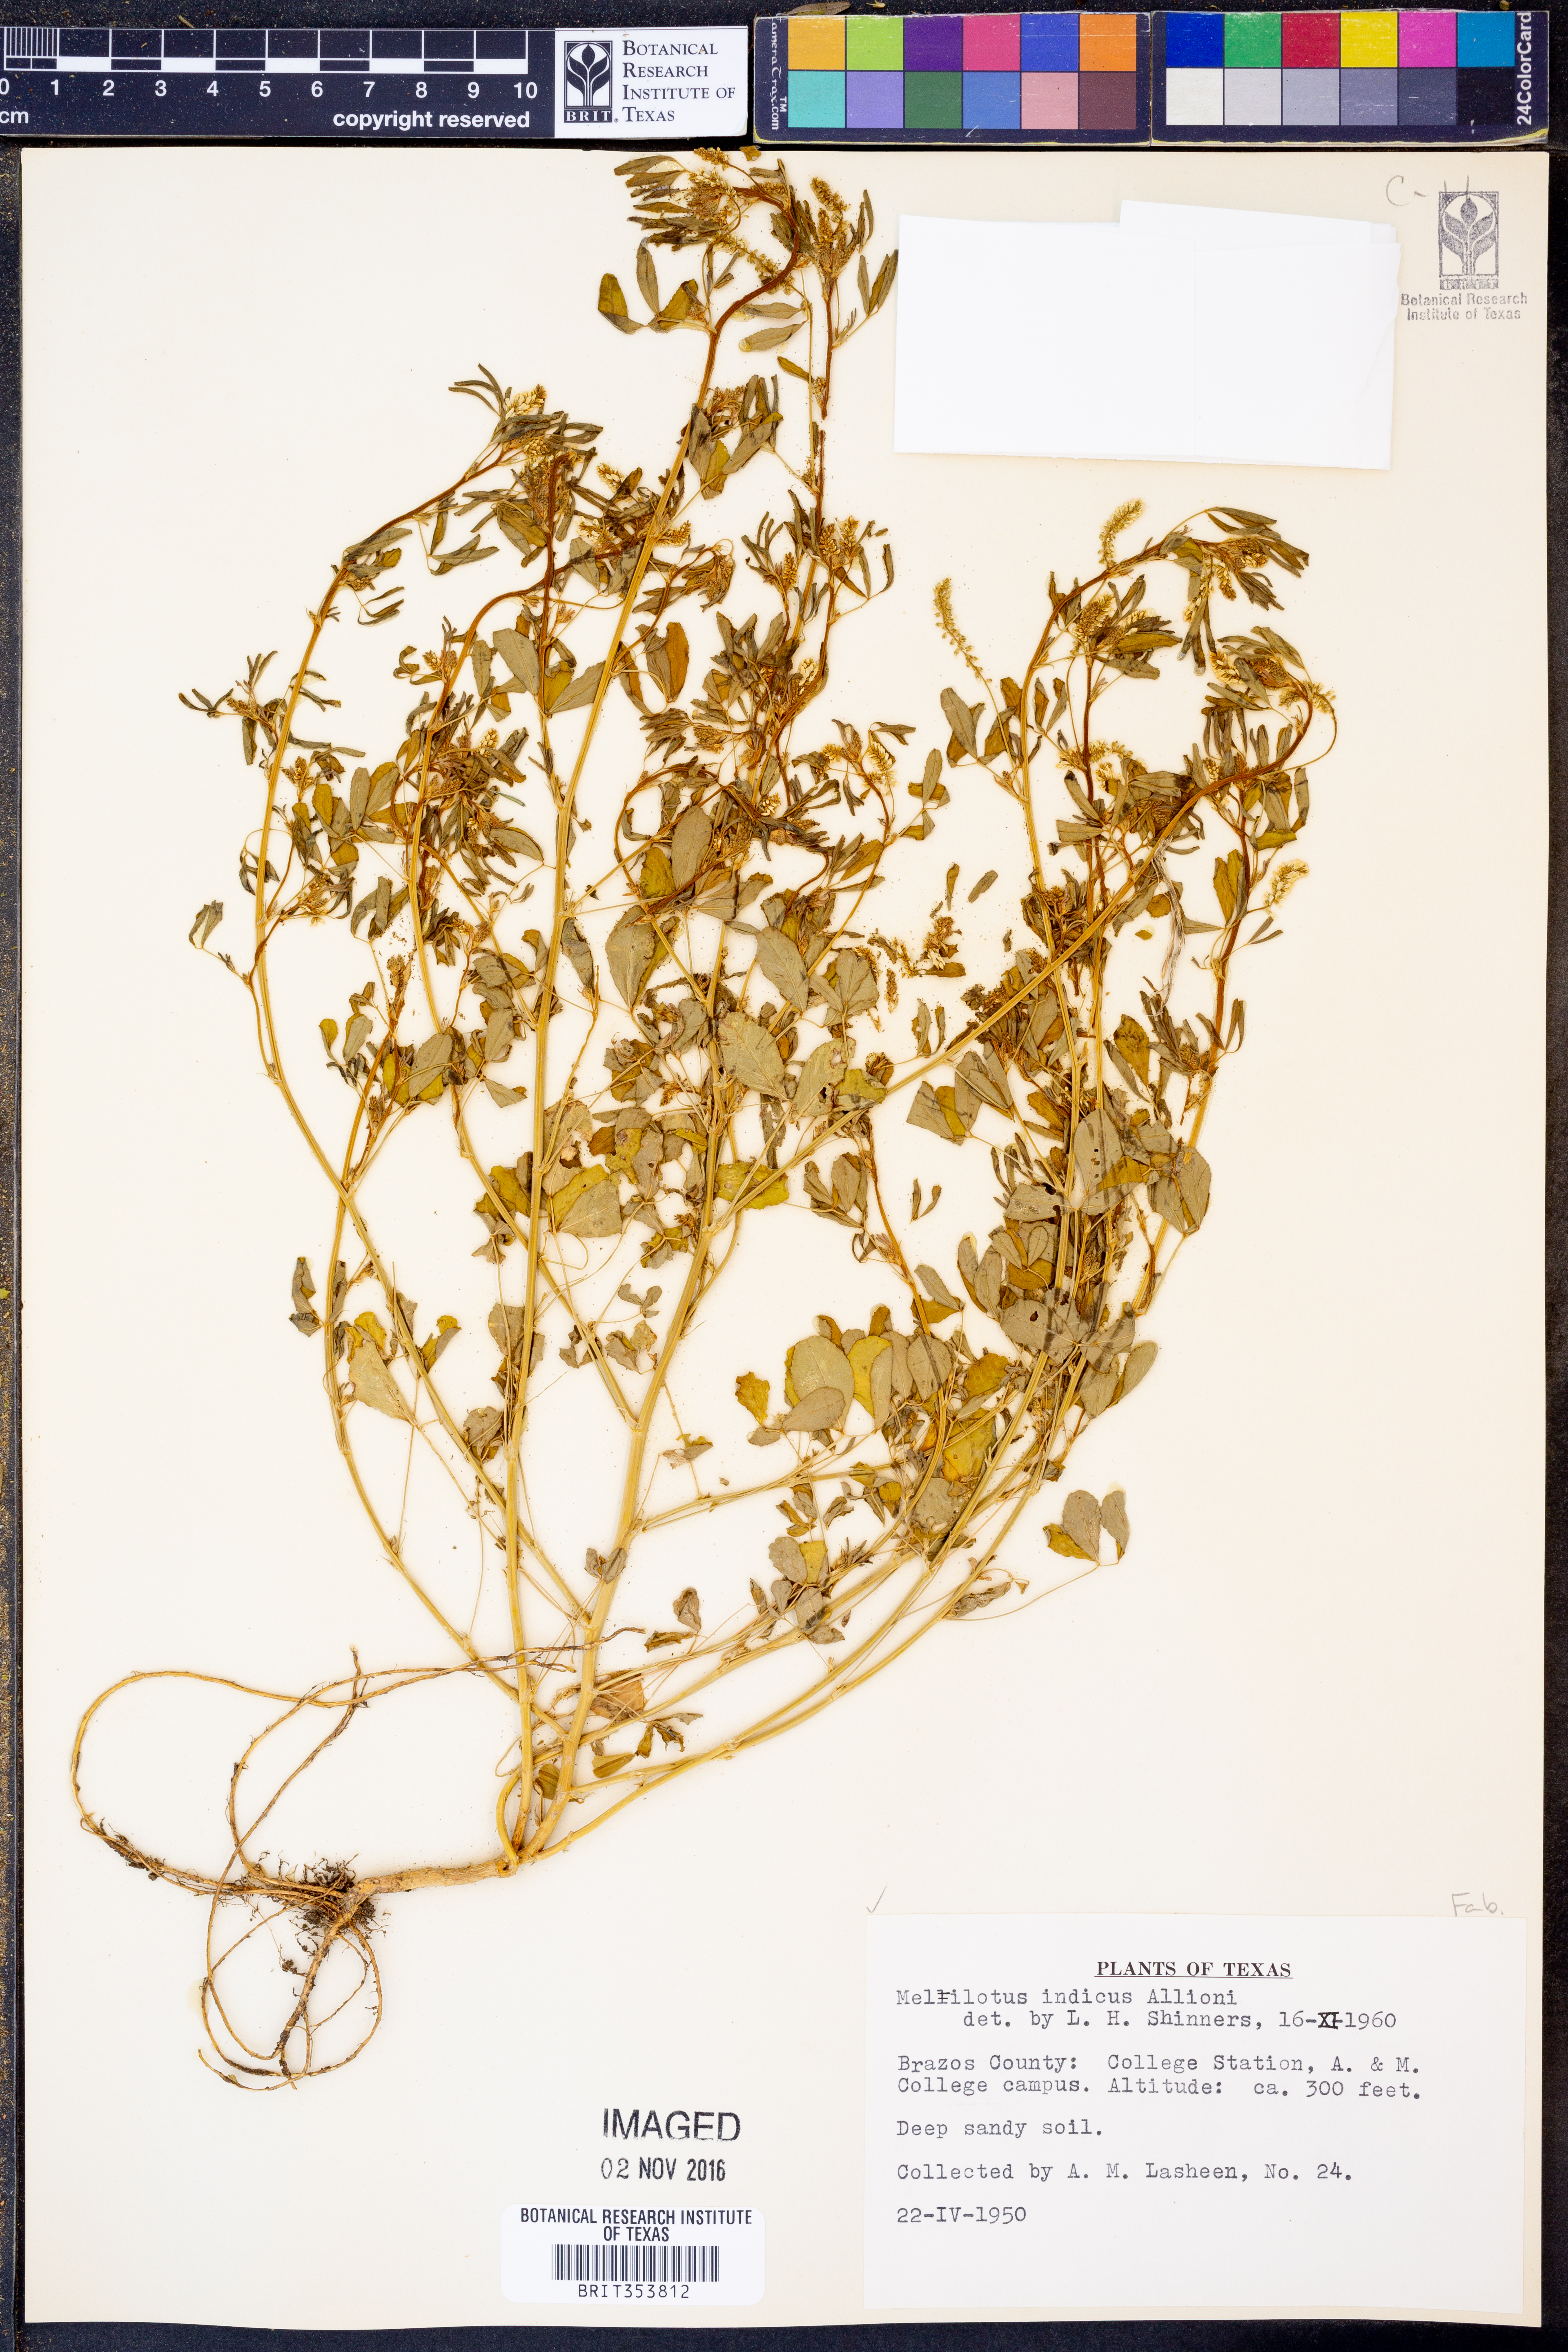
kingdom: Plantae
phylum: Tracheophyta
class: Magnoliopsida
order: Fabales
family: Fabaceae
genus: Melilotus
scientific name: Melilotus indicus
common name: Small melilot
